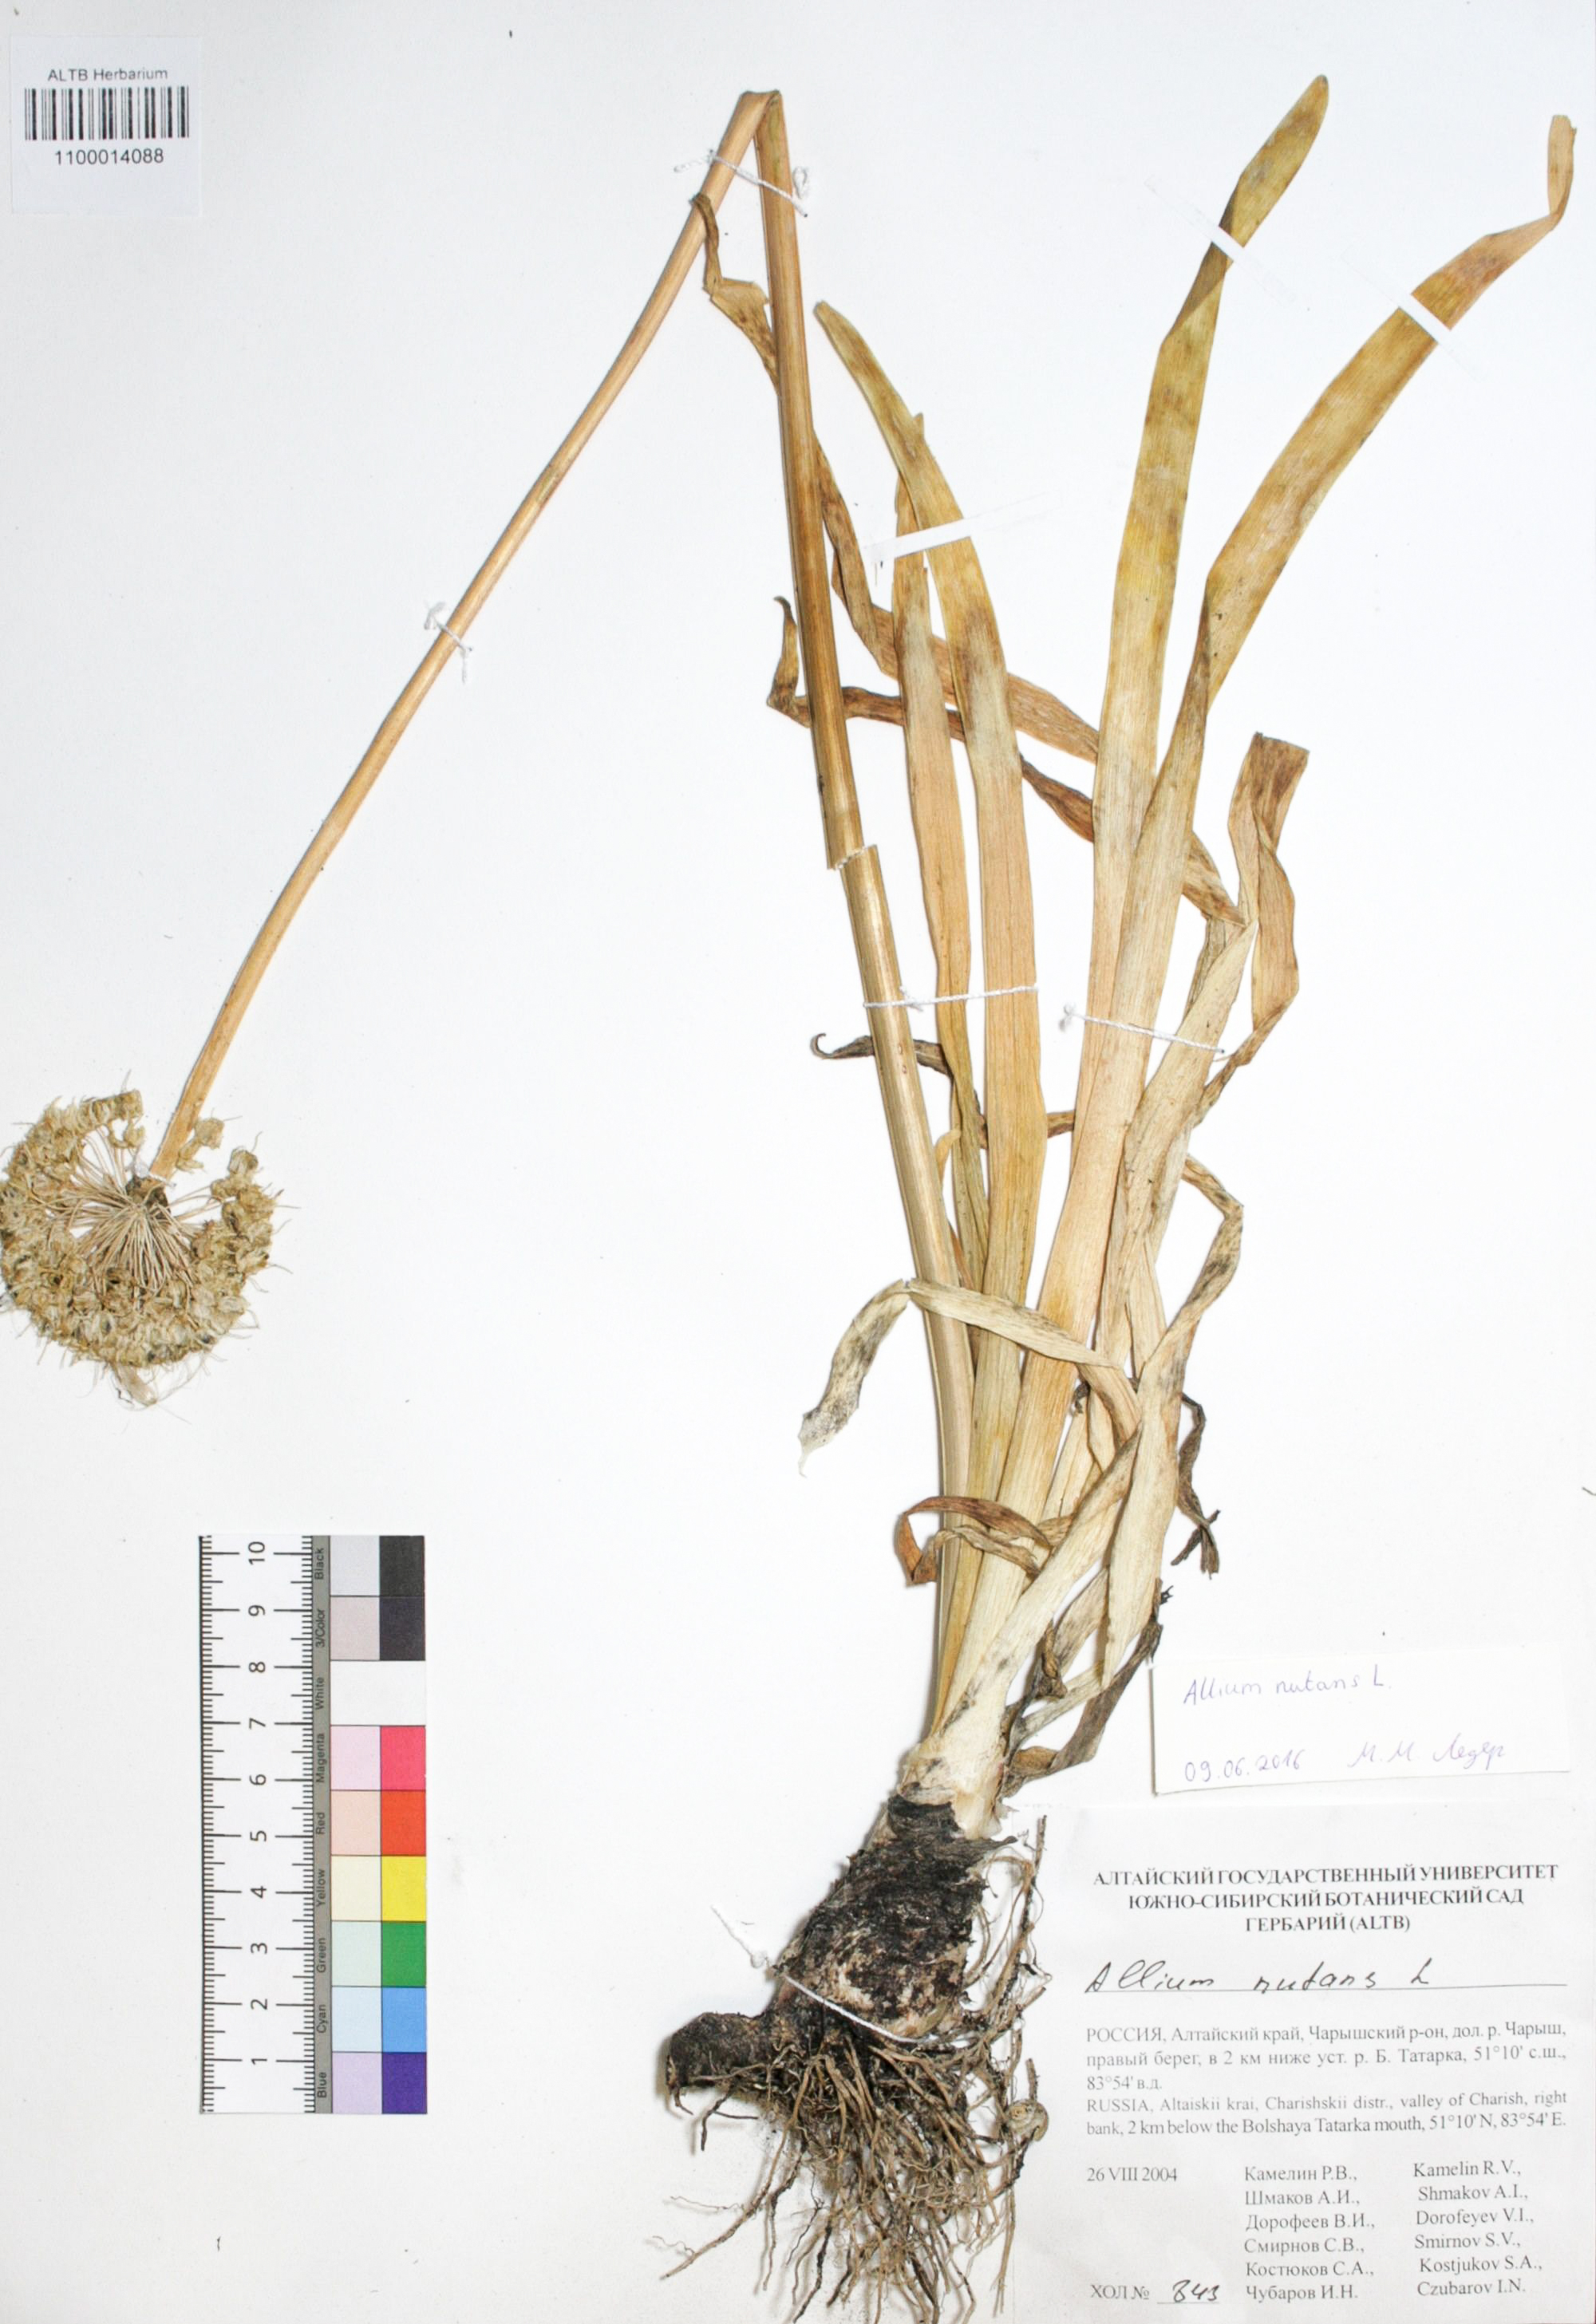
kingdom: Plantae
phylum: Tracheophyta
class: Liliopsida
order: Asparagales
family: Amaryllidaceae
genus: Allium
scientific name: Allium nutans
